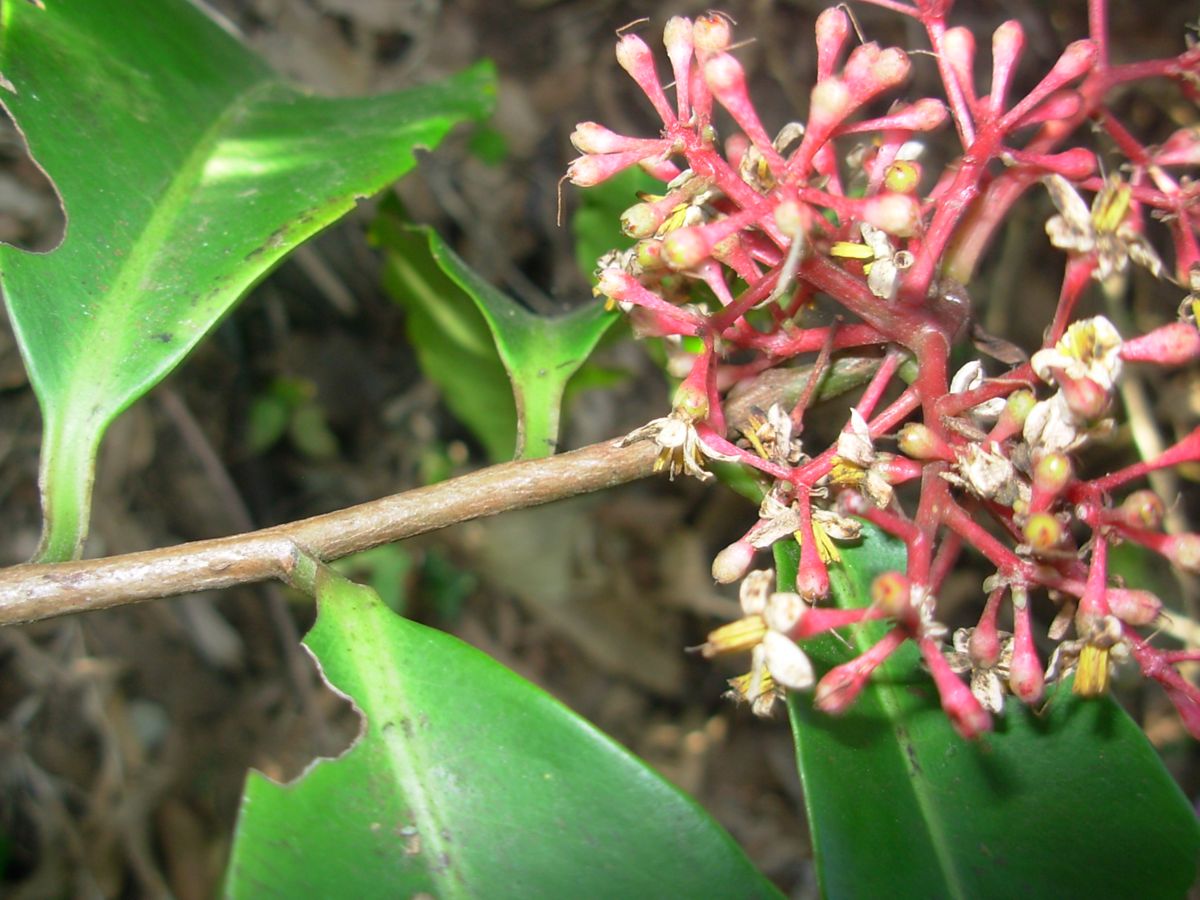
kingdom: Plantae
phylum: Tracheophyta
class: Magnoliopsida
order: Ericales
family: Primulaceae
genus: Ardisia
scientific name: Ardisia compressa
